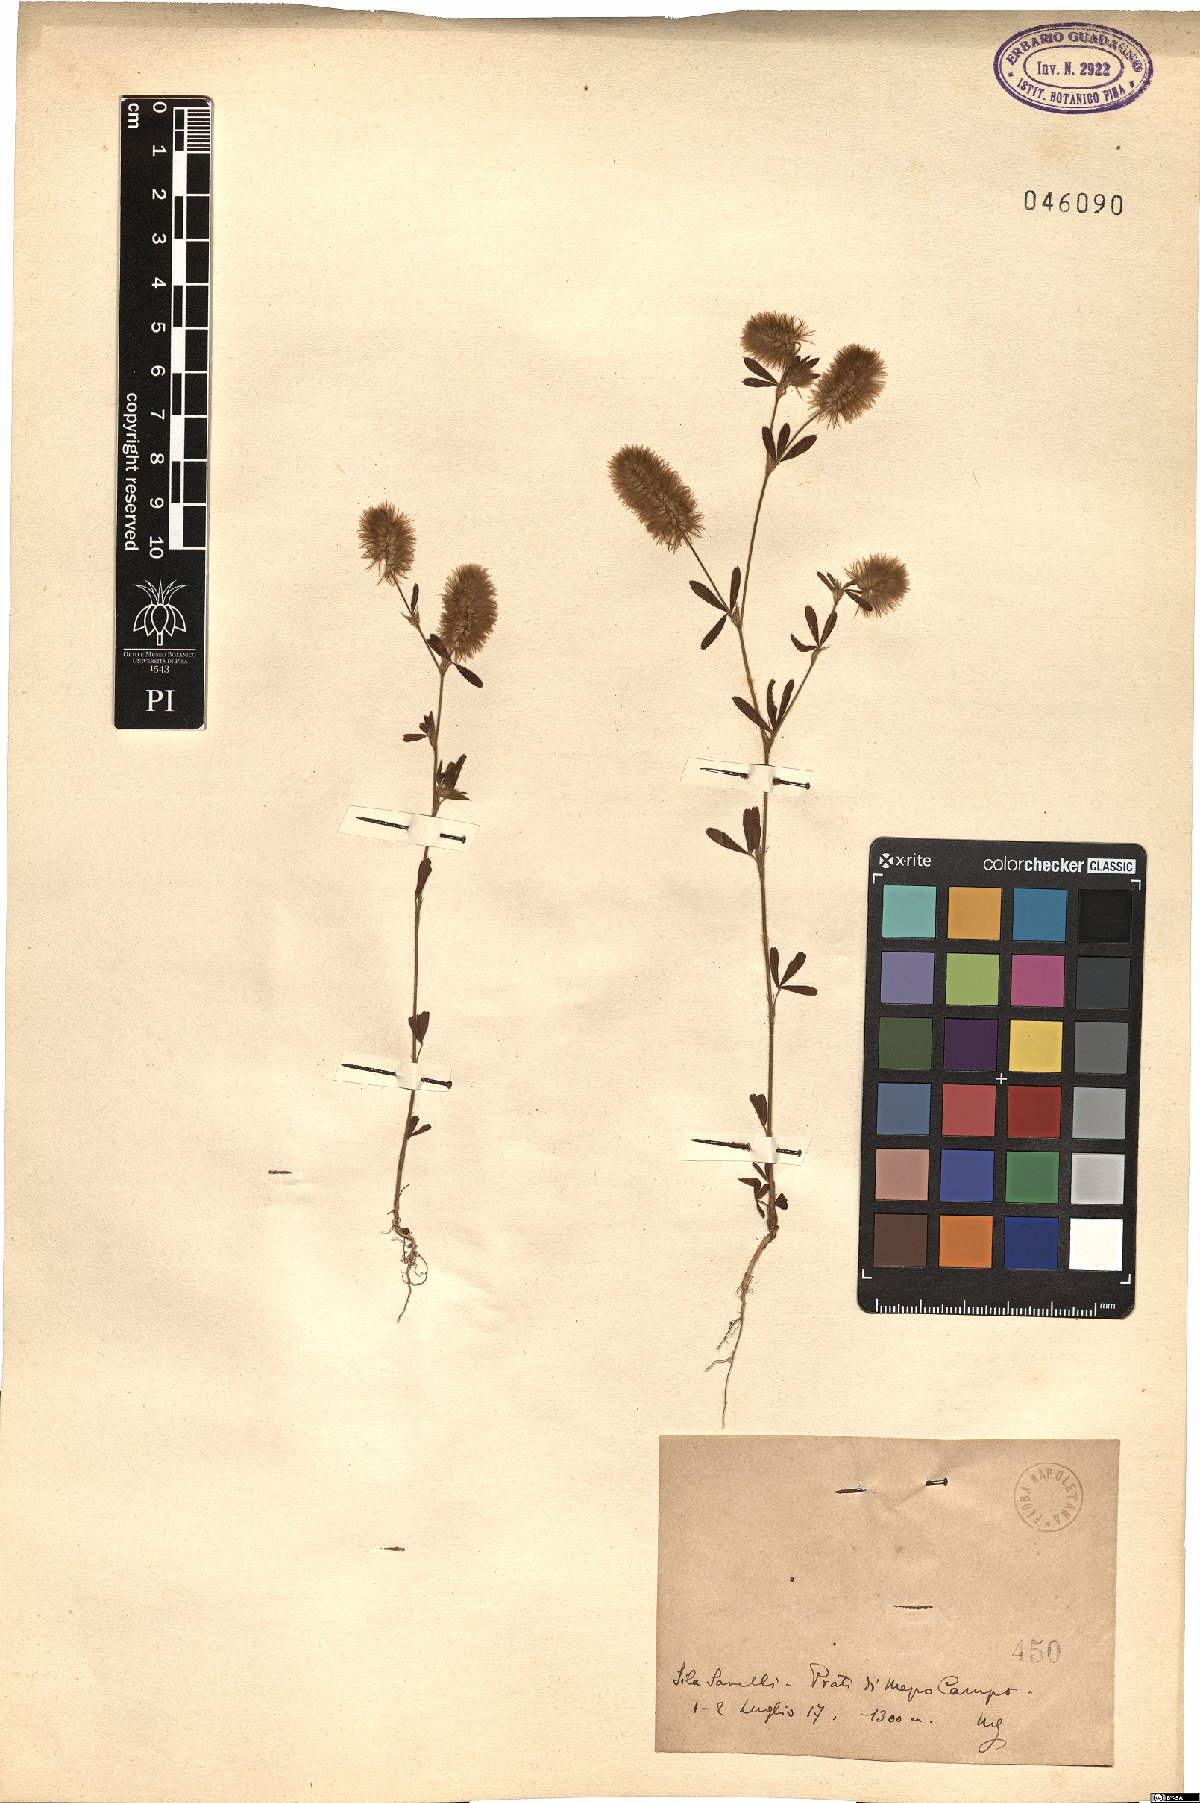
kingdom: Plantae
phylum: Tracheophyta
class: Magnoliopsida
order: Fabales
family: Fabaceae
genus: Trifolium
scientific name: Trifolium
